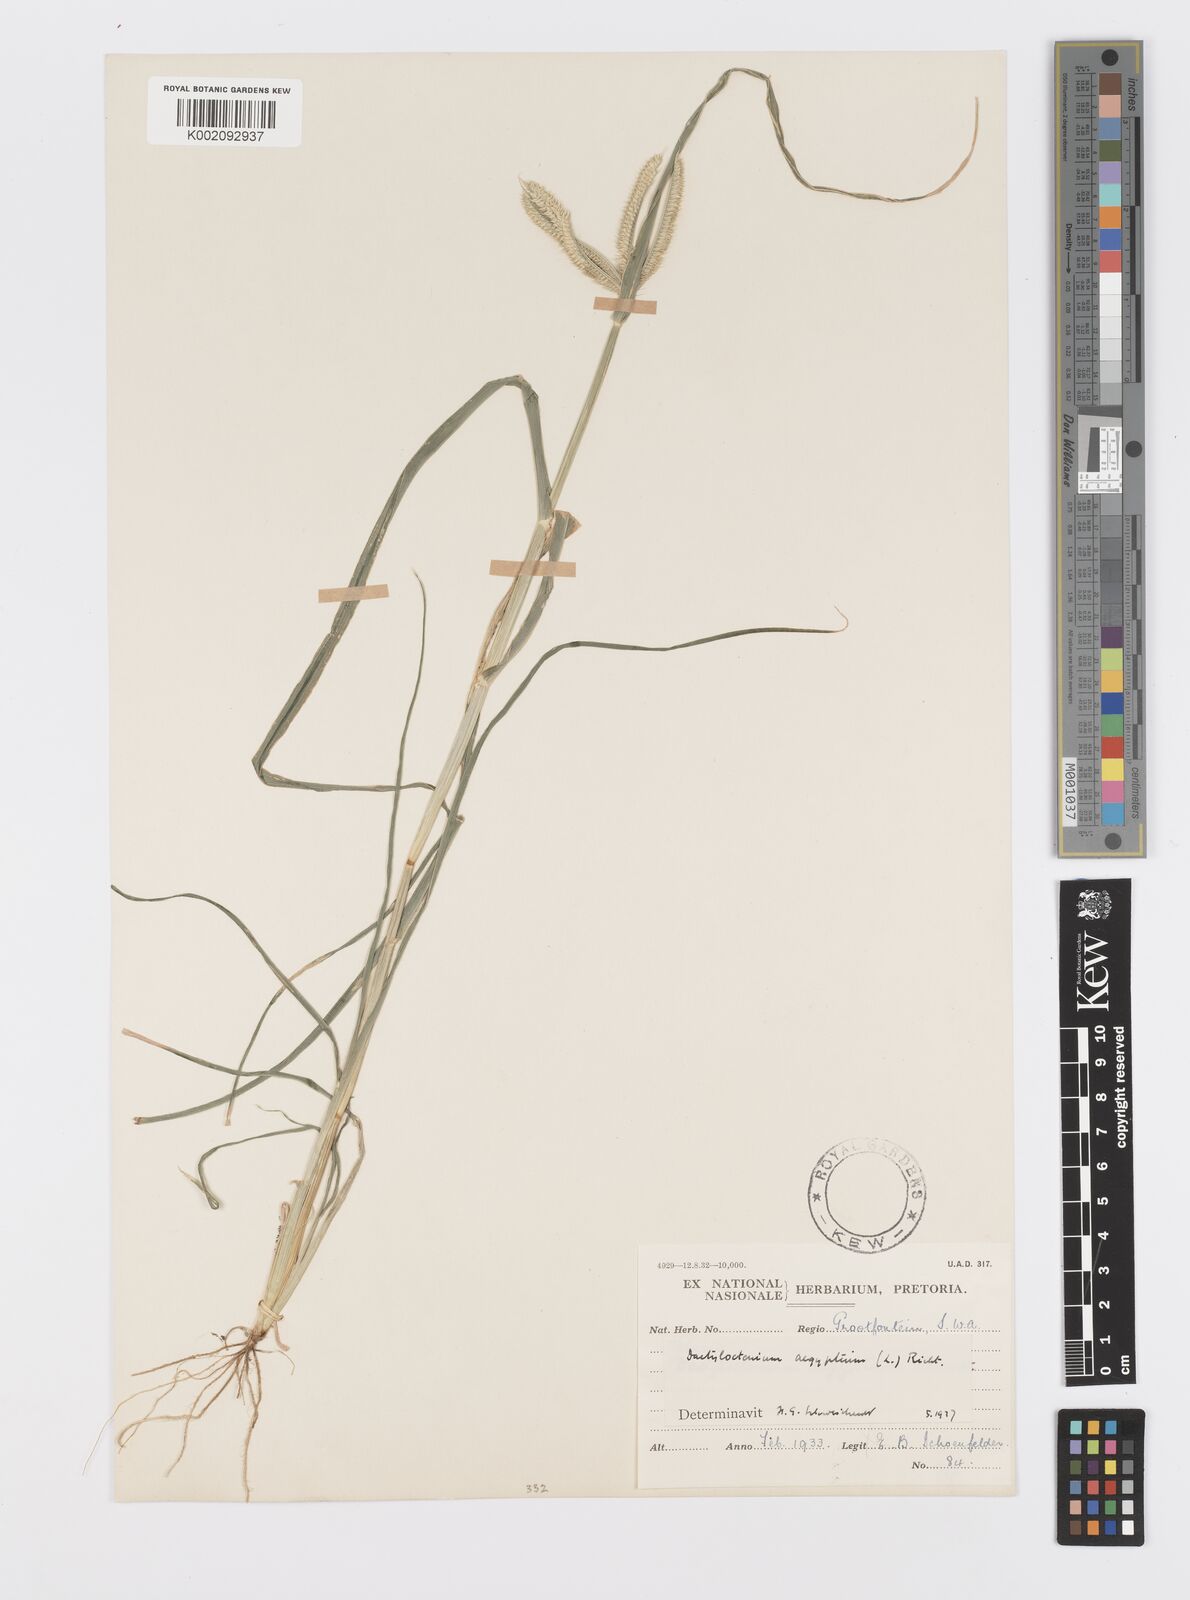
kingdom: Plantae
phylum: Tracheophyta
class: Liliopsida
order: Poales
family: Poaceae
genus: Dactyloctenium
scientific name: Dactyloctenium giganteum
